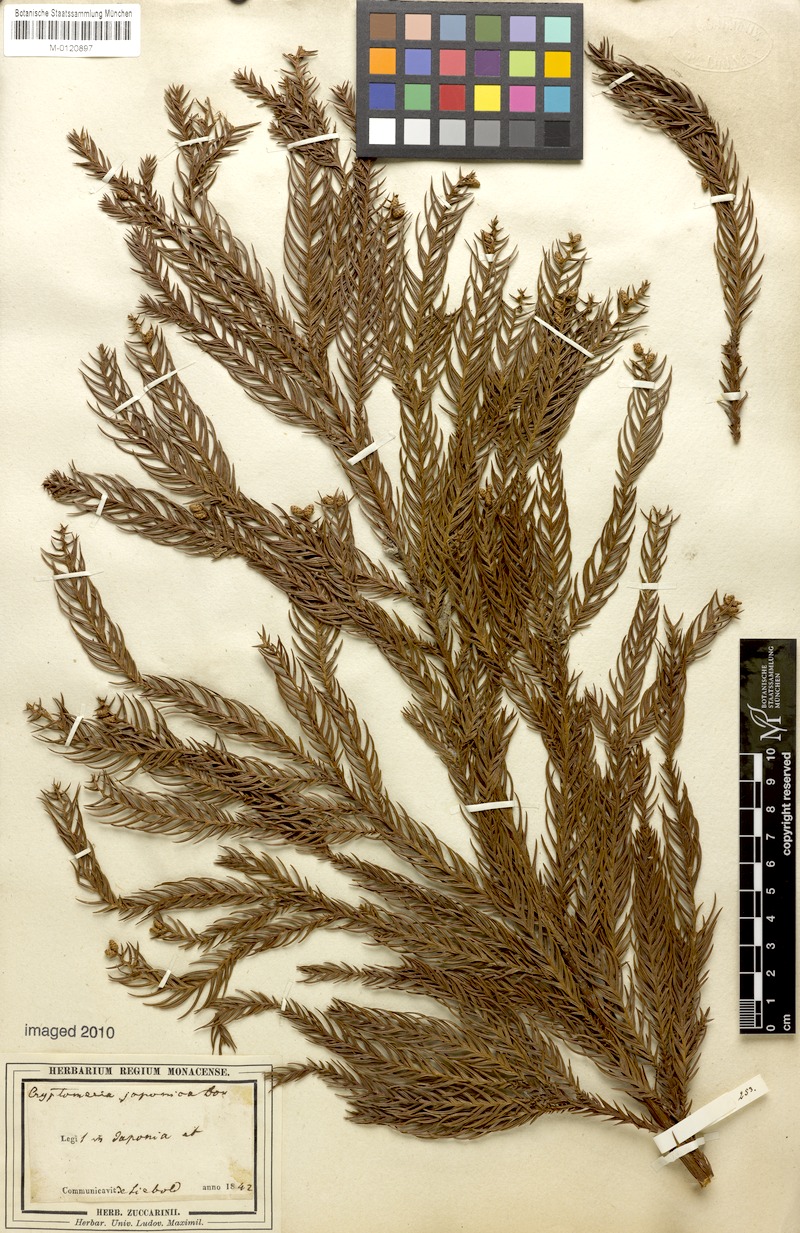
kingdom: Plantae
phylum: Tracheophyta
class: Pinopsida
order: Pinales
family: Cupressaceae
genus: Cryptomeria
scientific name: Cryptomeria japonica
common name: Japanese cedar
